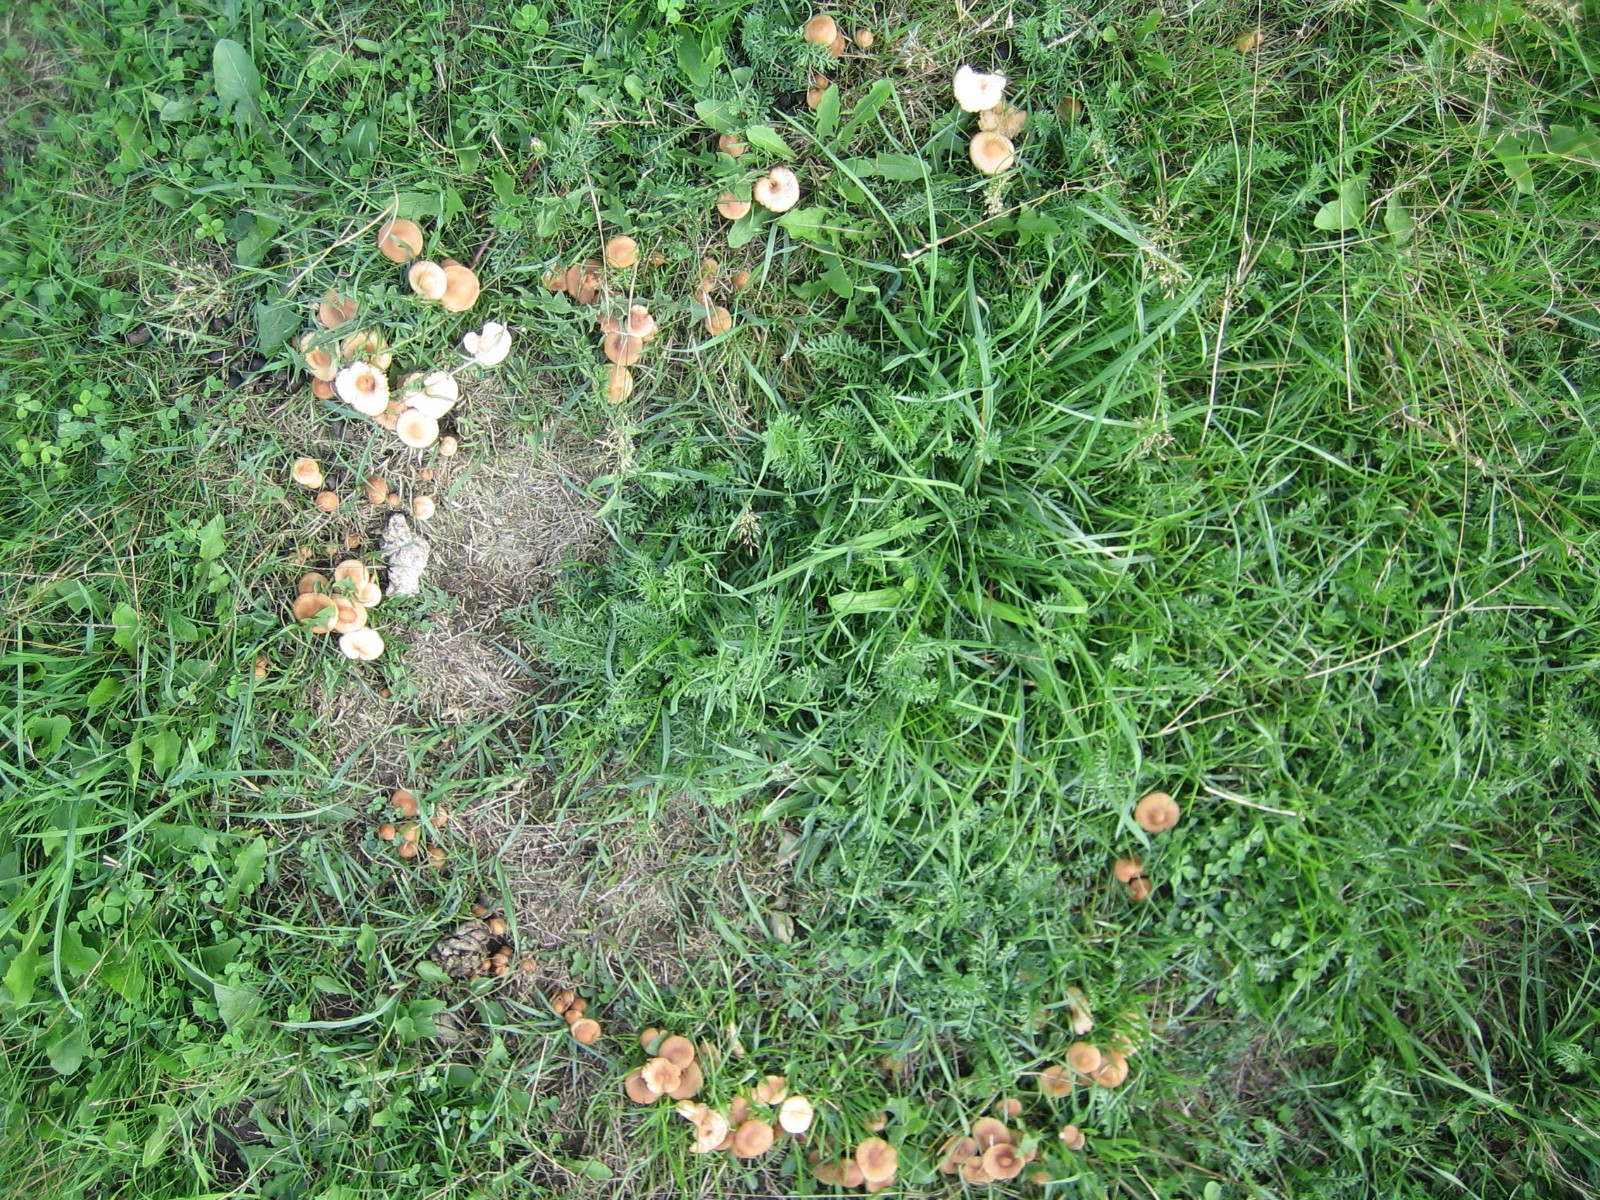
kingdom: Fungi
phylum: Basidiomycota
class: Agaricomycetes
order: Agaricales
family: Marasmiaceae
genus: Marasmius
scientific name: Marasmius oreades
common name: elledans-bruskhat
